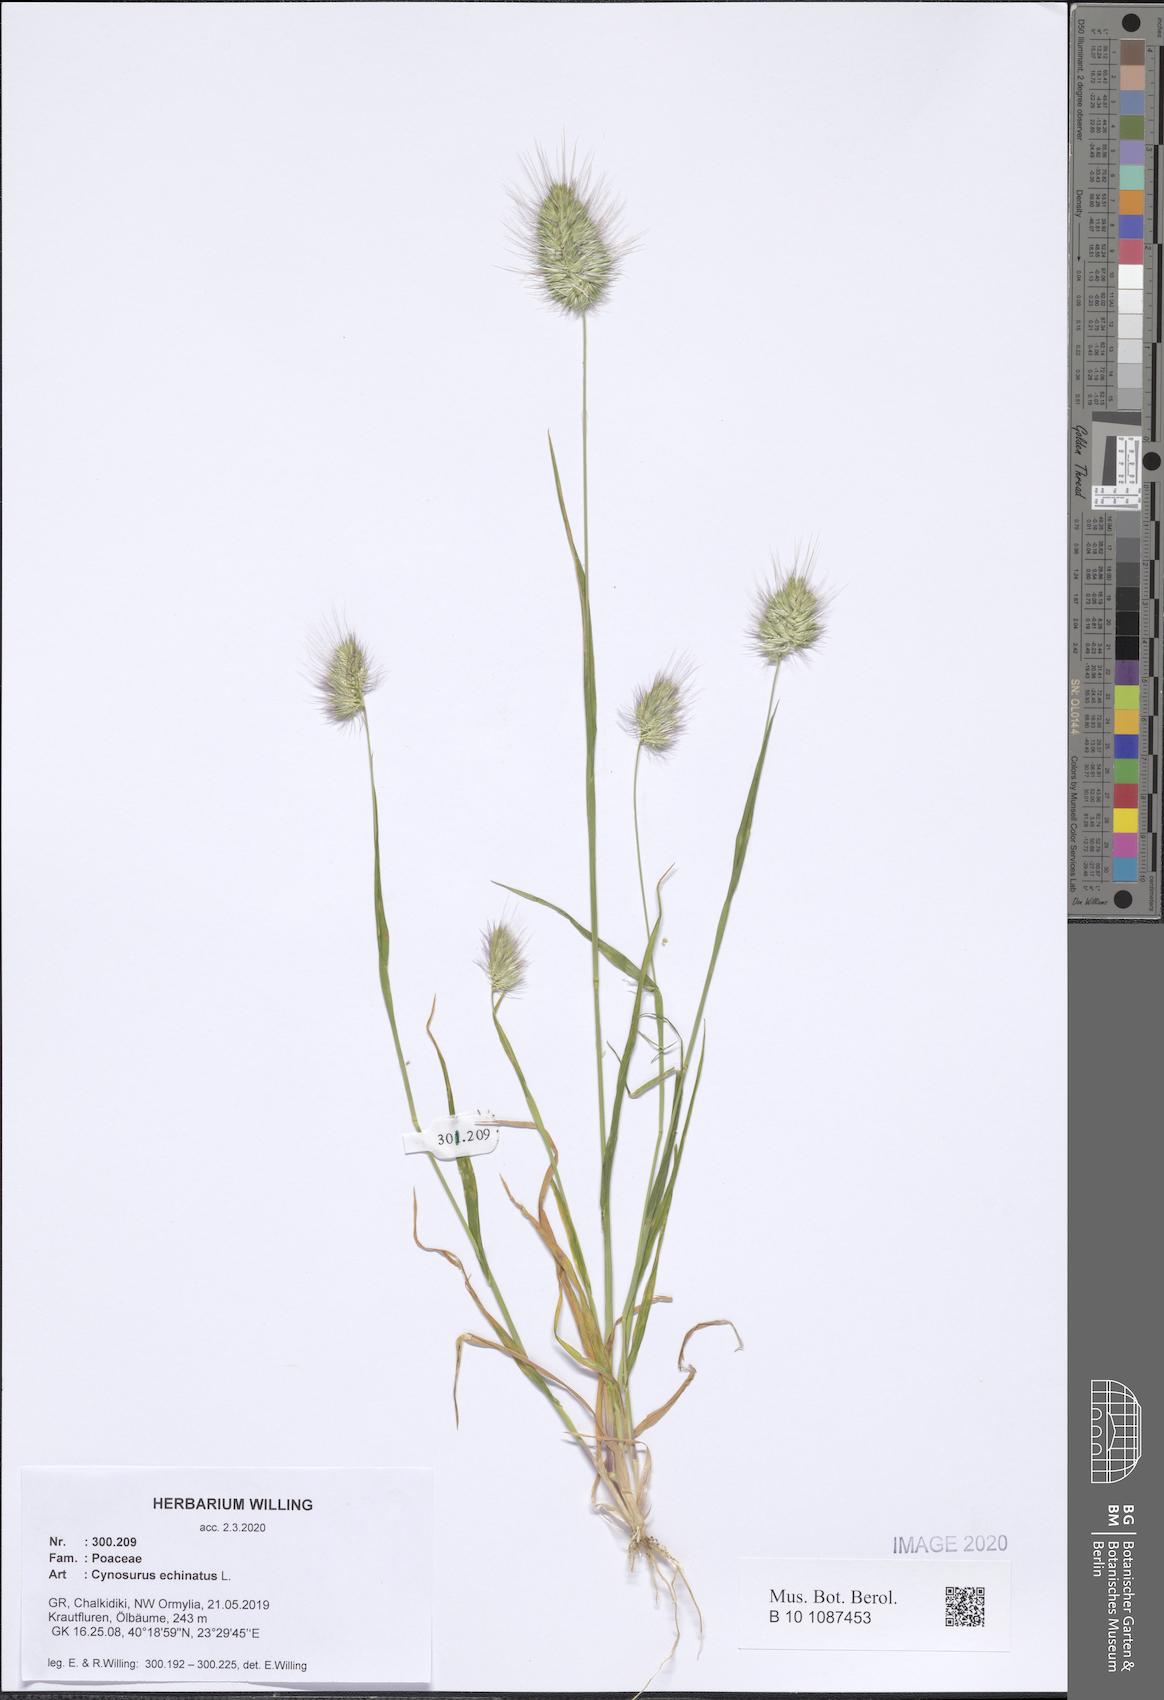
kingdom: Plantae
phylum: Tracheophyta
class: Liliopsida
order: Poales
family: Poaceae
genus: Cynosurus
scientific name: Cynosurus echinatus
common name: Rough dog's-tail
